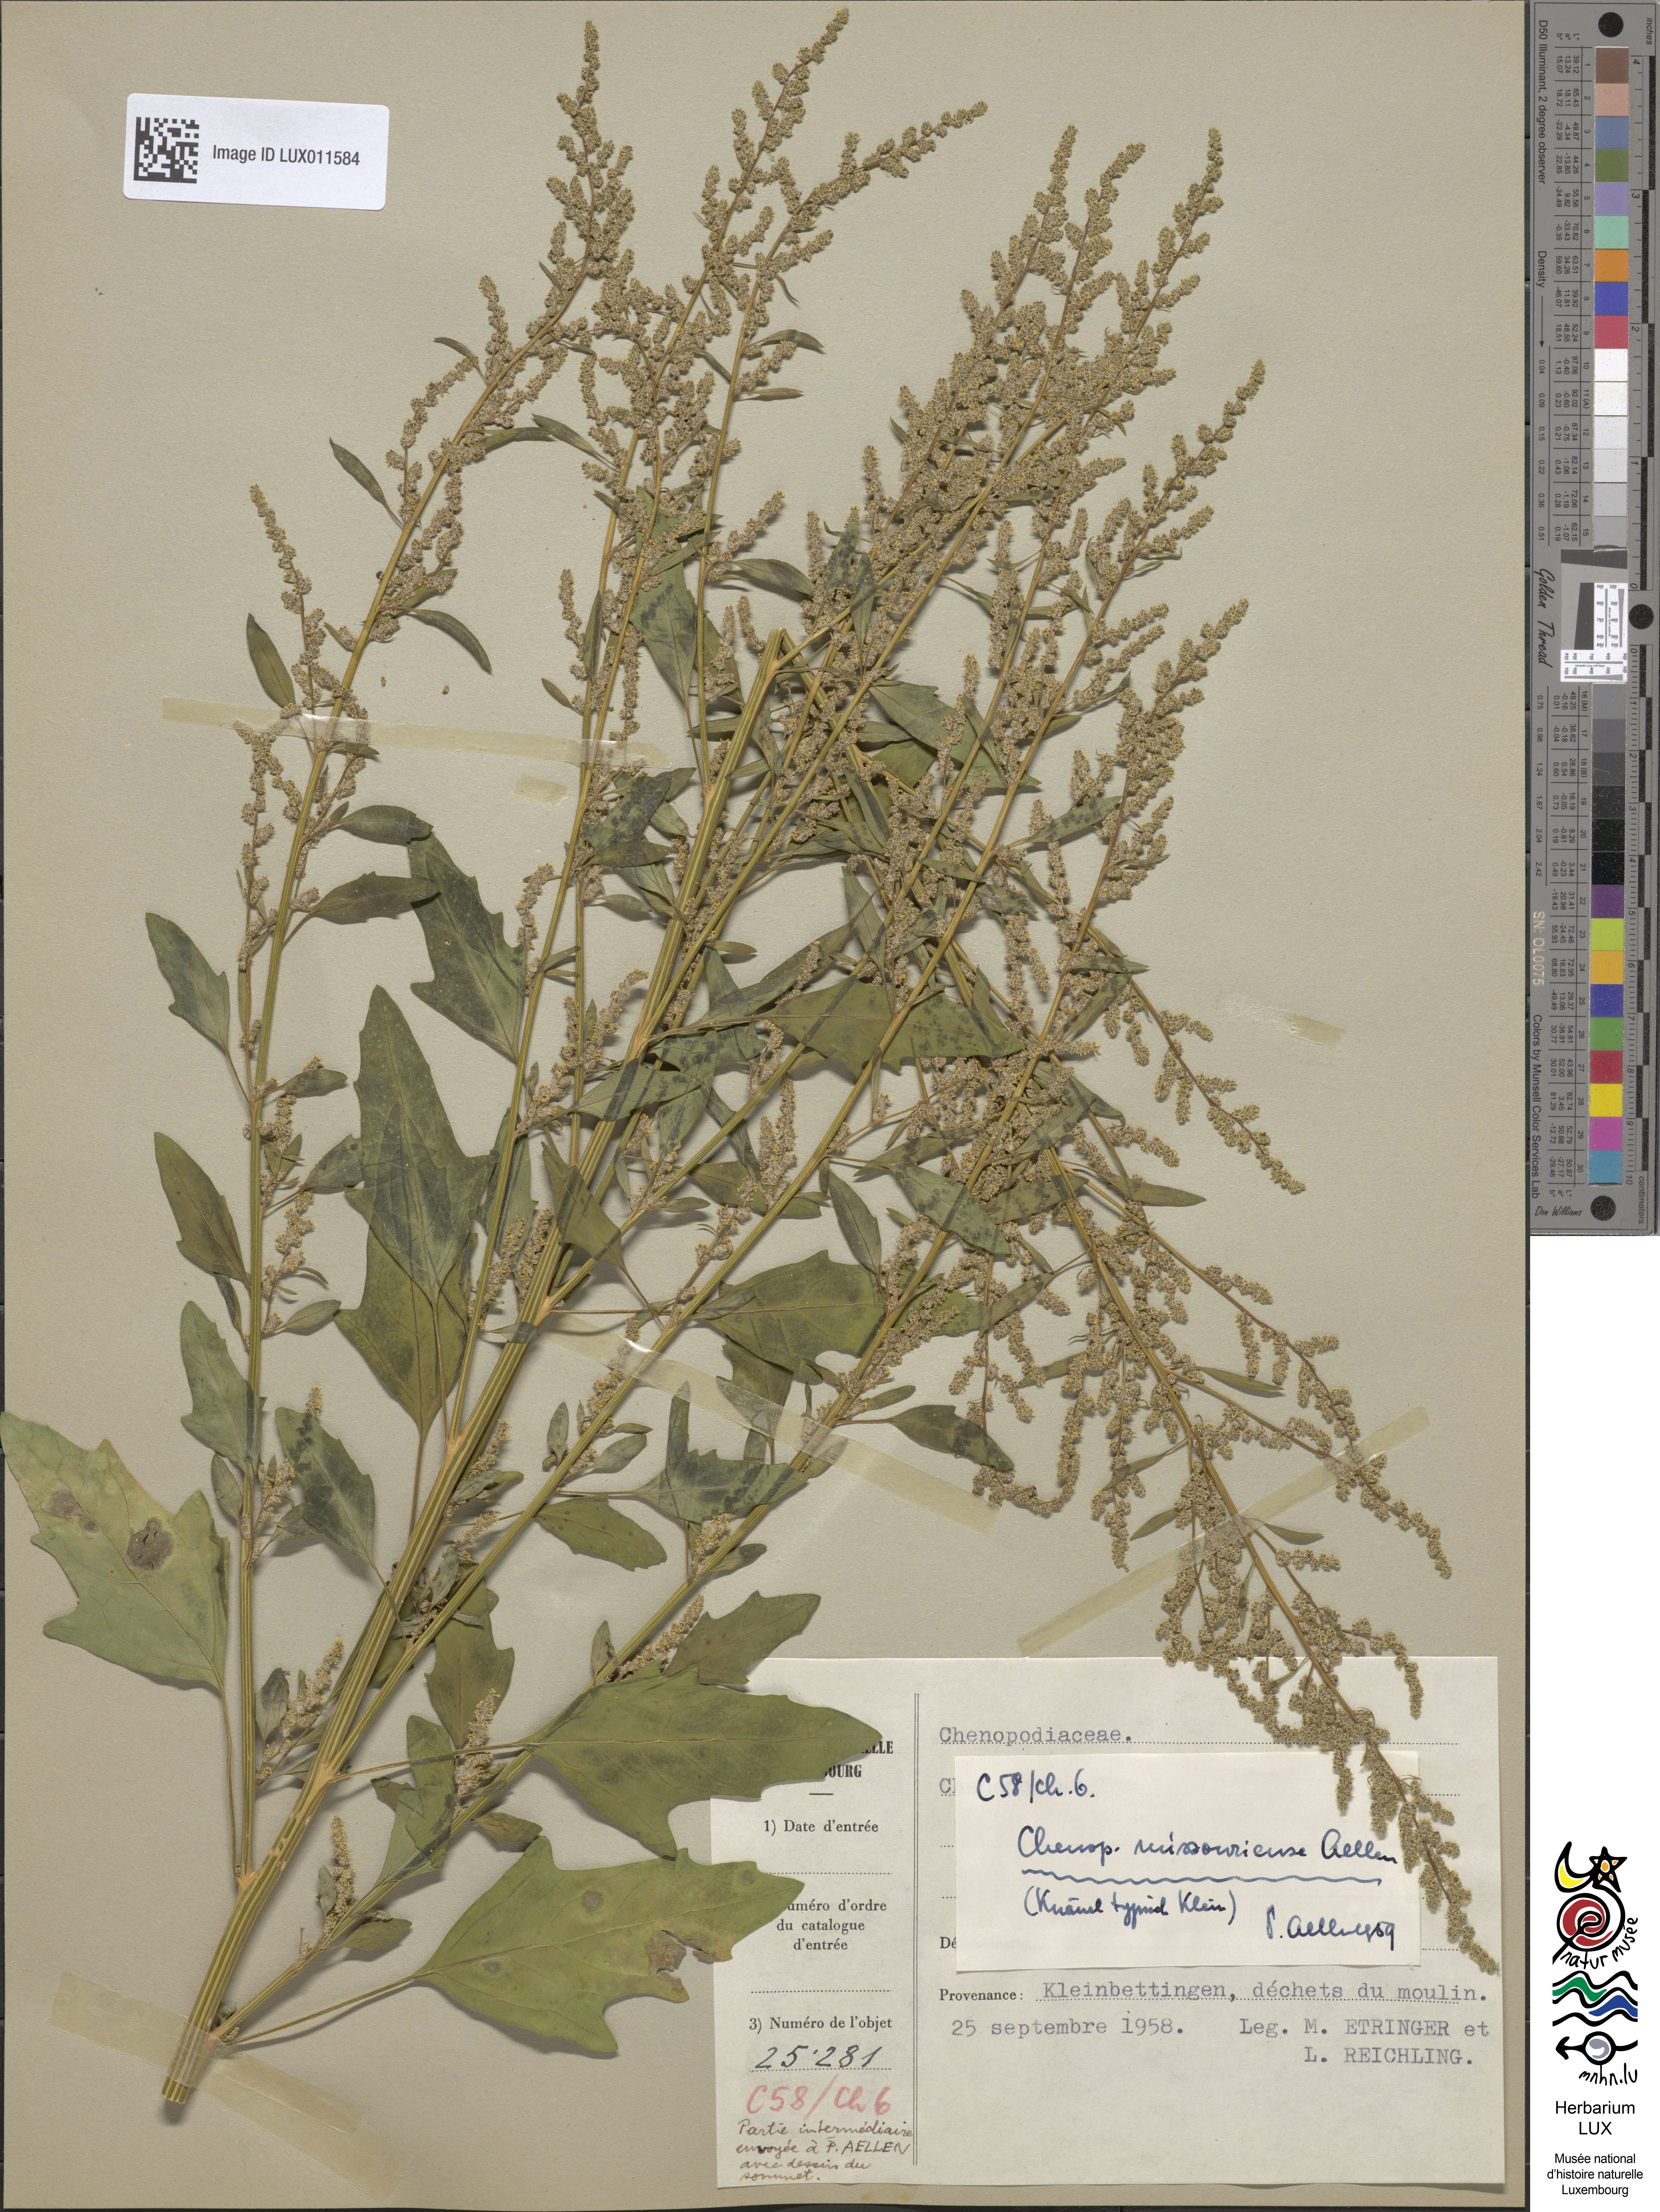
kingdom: Plantae
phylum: Tracheophyta
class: Magnoliopsida
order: Caryophyllales
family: Amaranthaceae
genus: Chenopodium
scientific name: Chenopodium album
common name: Fat-hen
